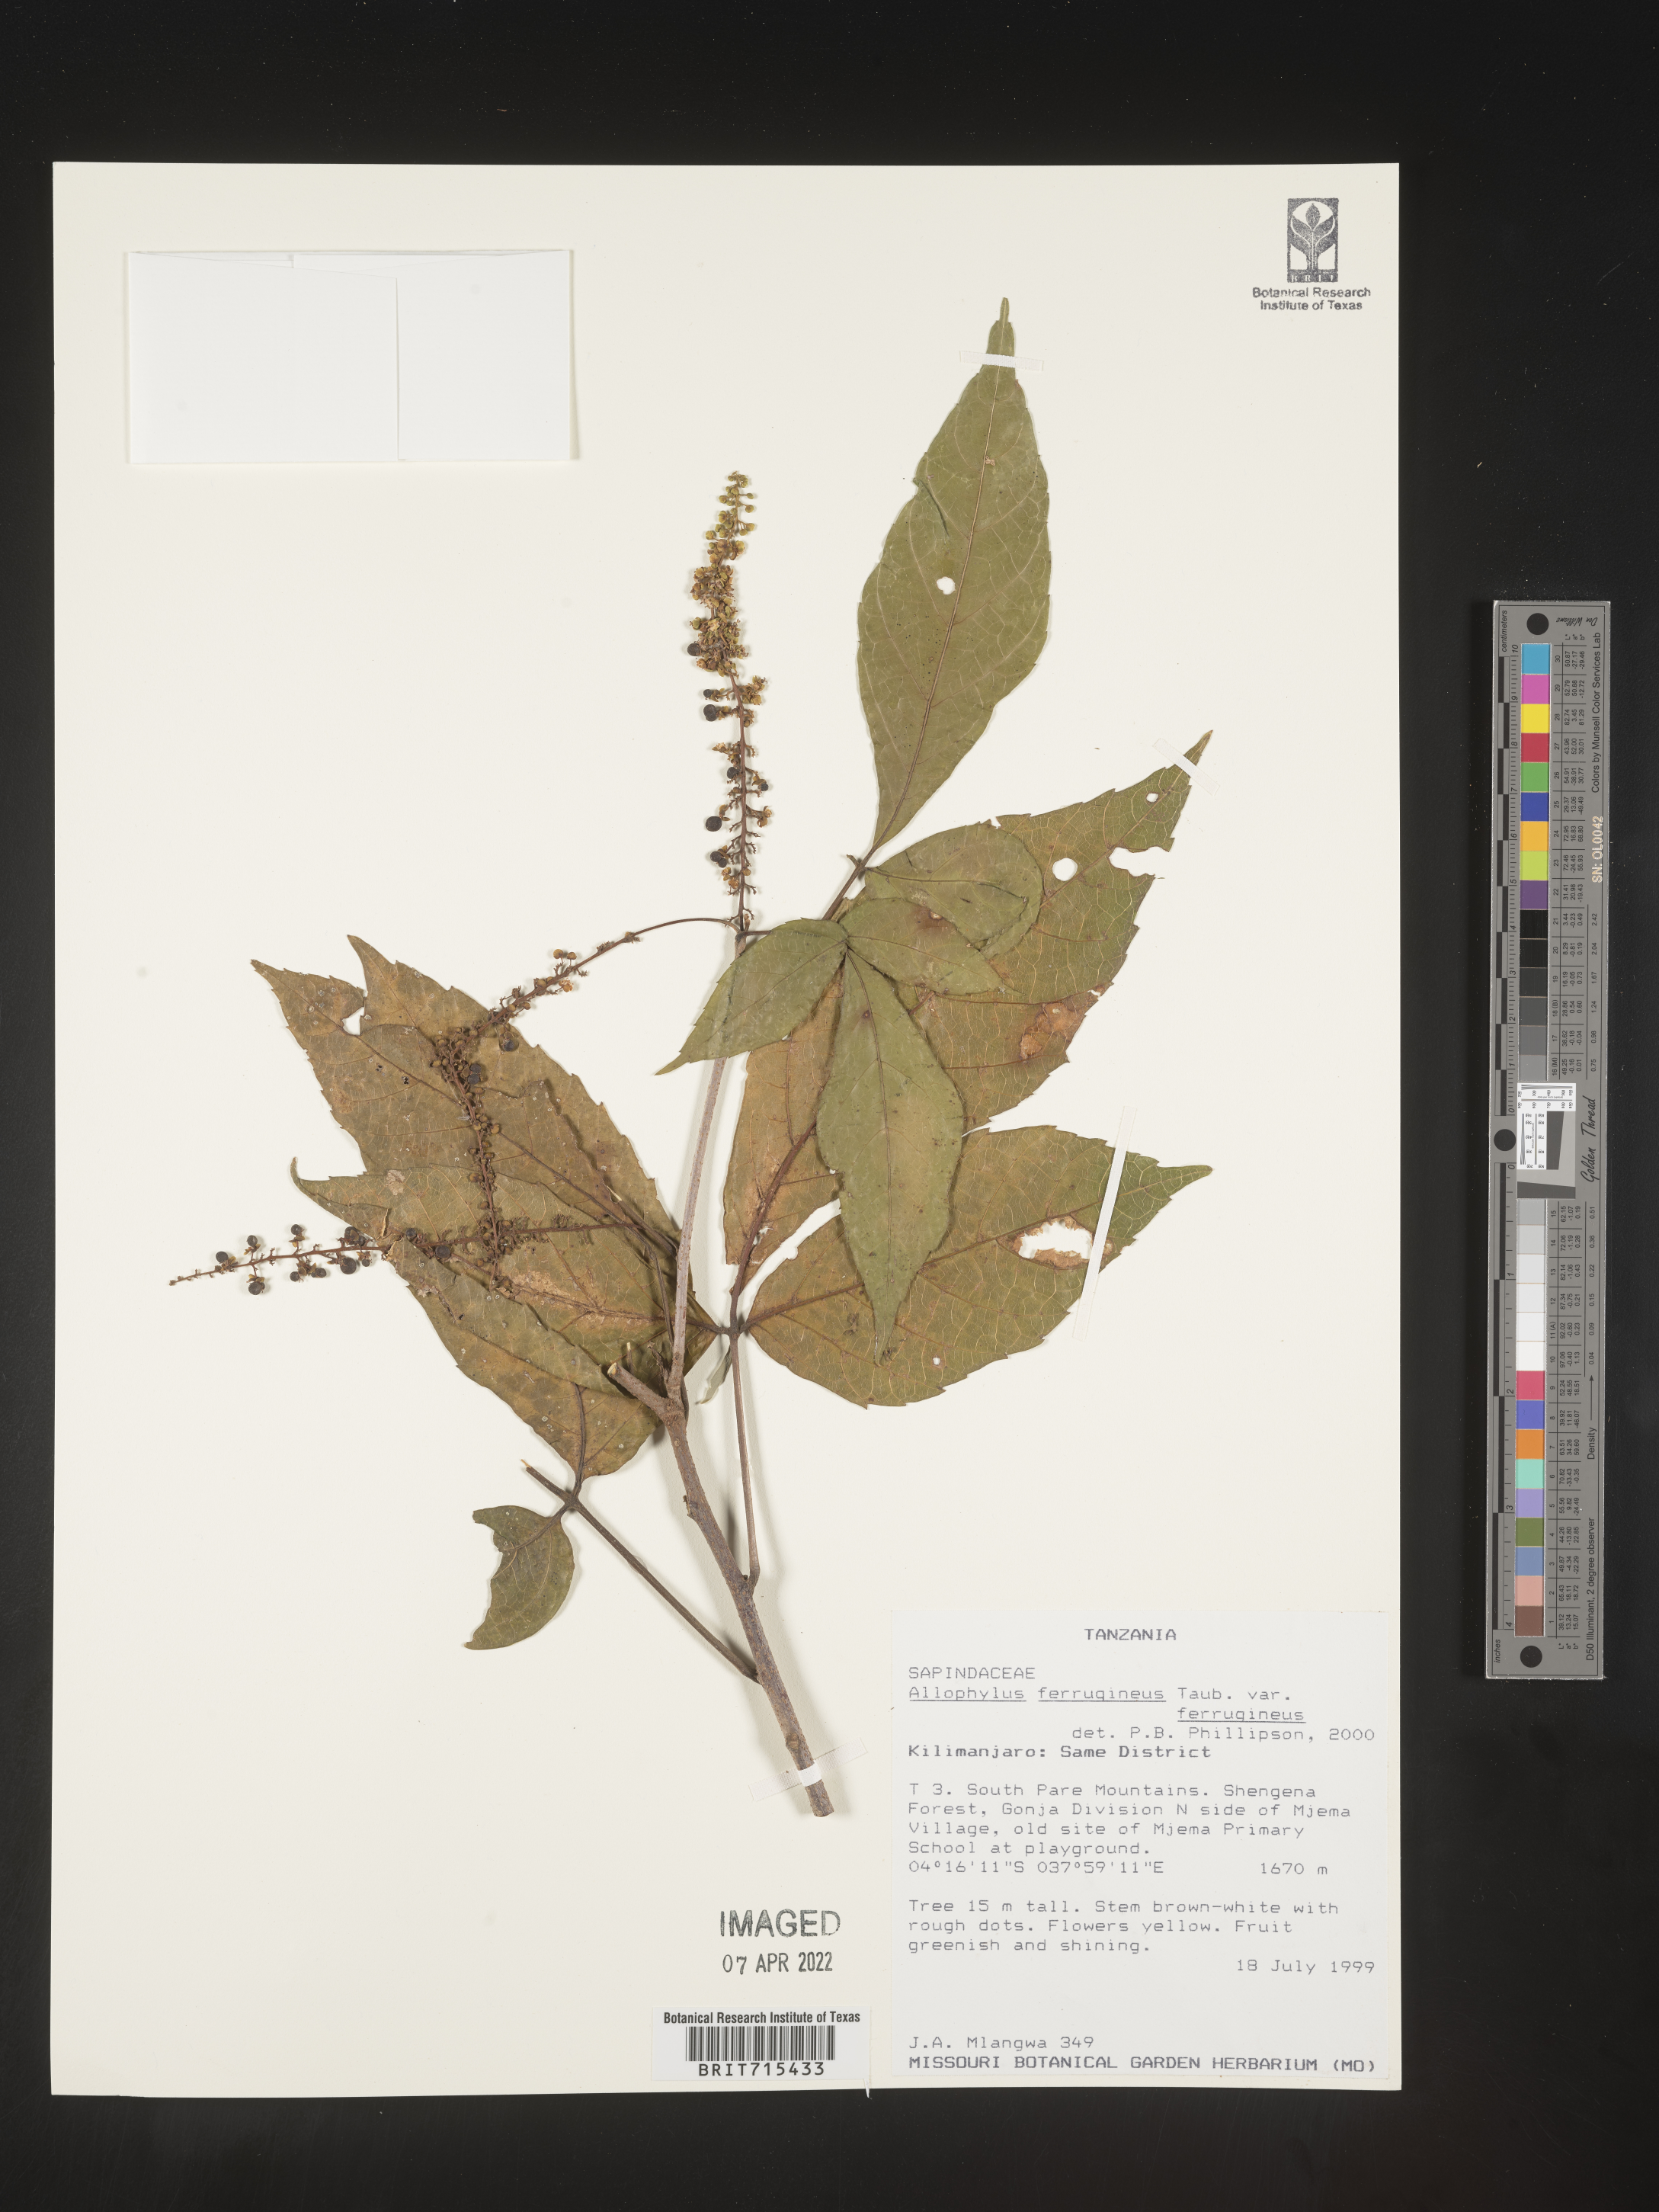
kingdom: Plantae
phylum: Tracheophyta
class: Magnoliopsida
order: Sapindales
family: Sapindaceae
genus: Allophylus
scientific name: Allophylus ferrugineus
